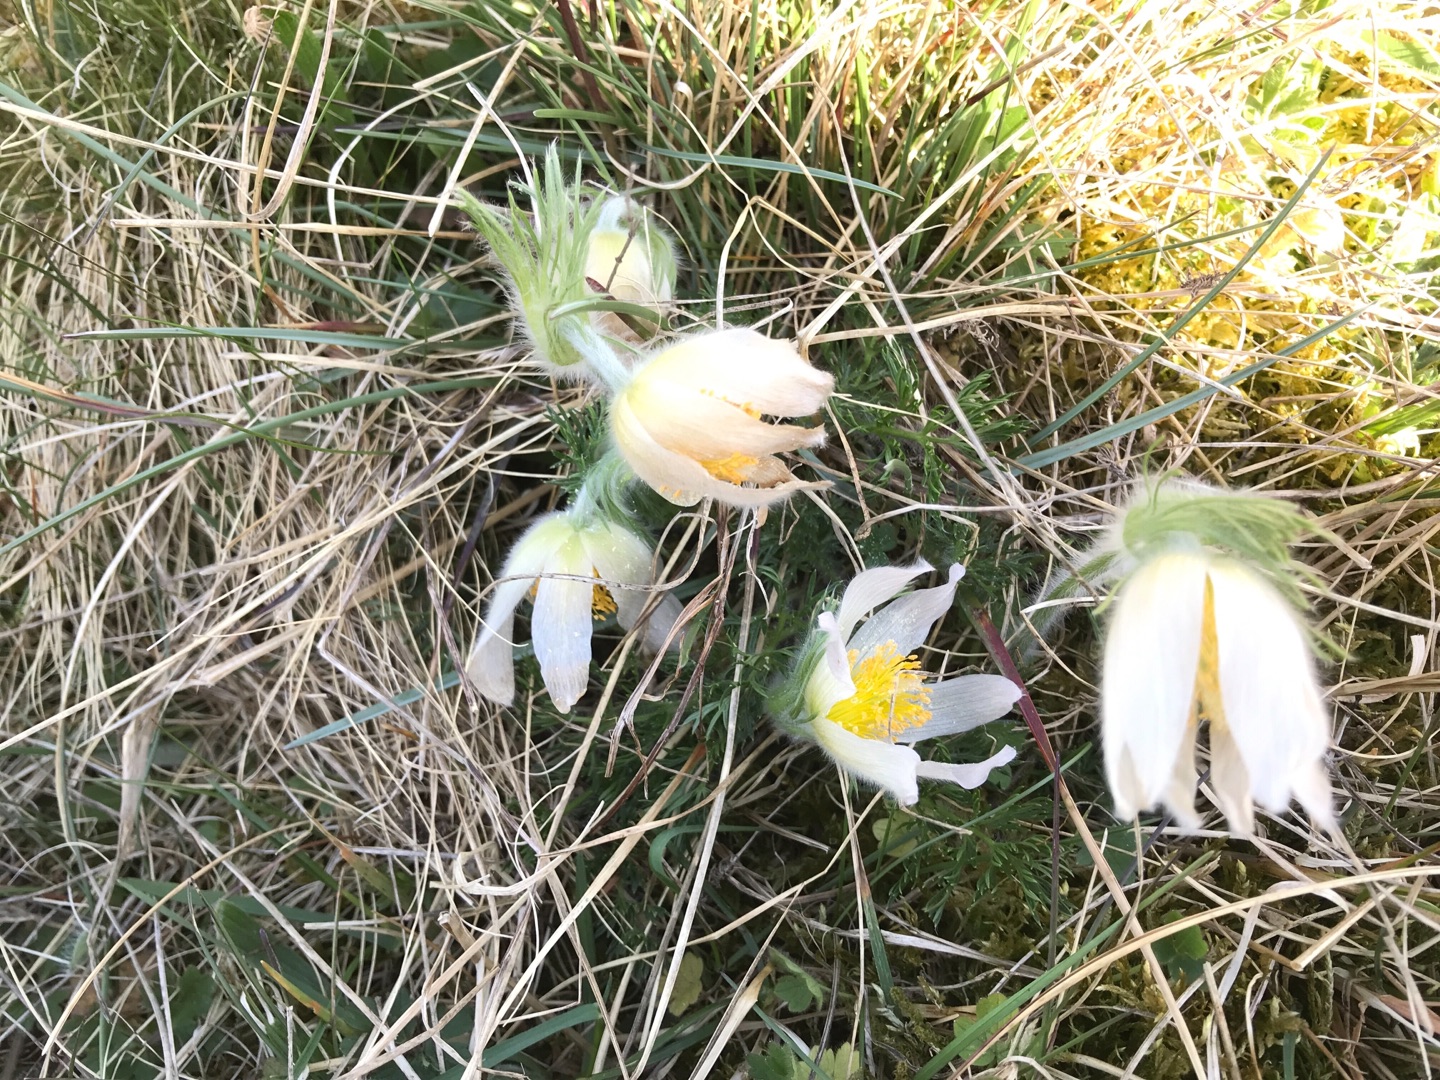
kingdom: Plantae
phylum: Tracheophyta
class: Magnoliopsida
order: Ranunculales
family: Ranunculaceae
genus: Pulsatilla
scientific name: Pulsatilla vulgaris
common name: Opret kobjælde
